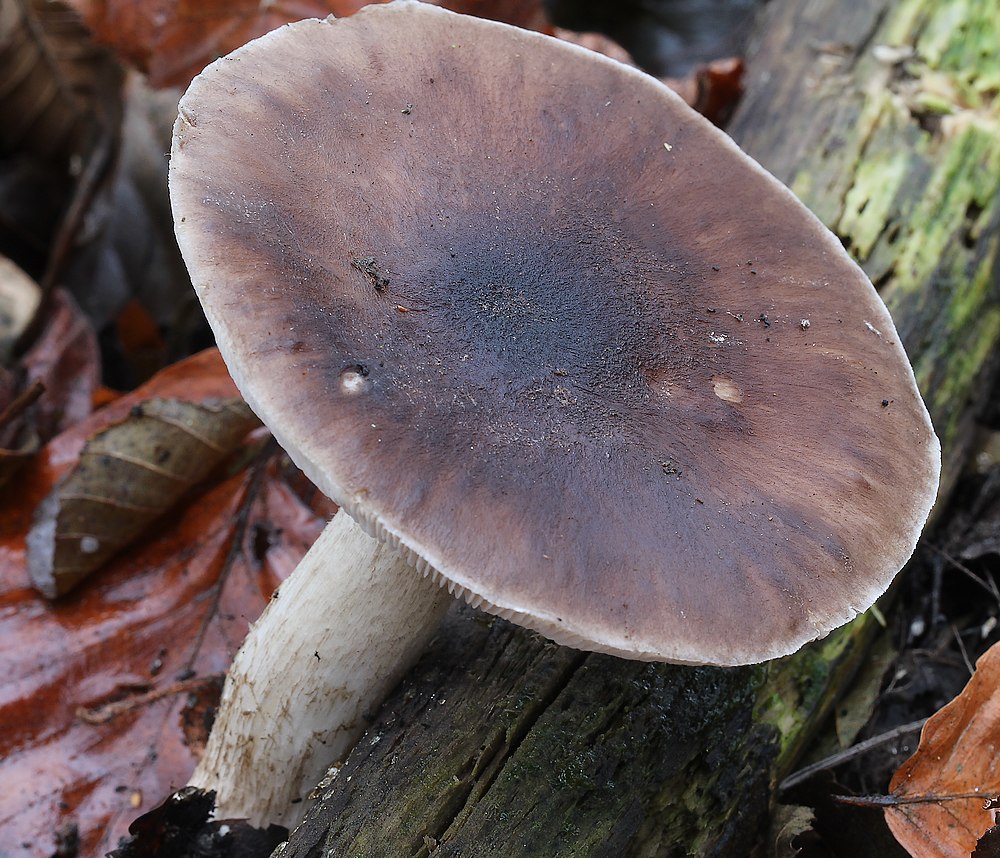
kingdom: Fungi
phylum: Basidiomycota
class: Agaricomycetes
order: Agaricales
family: Pluteaceae
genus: Pluteus
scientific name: Pluteus cervinus
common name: sodfarvet skærmhat
